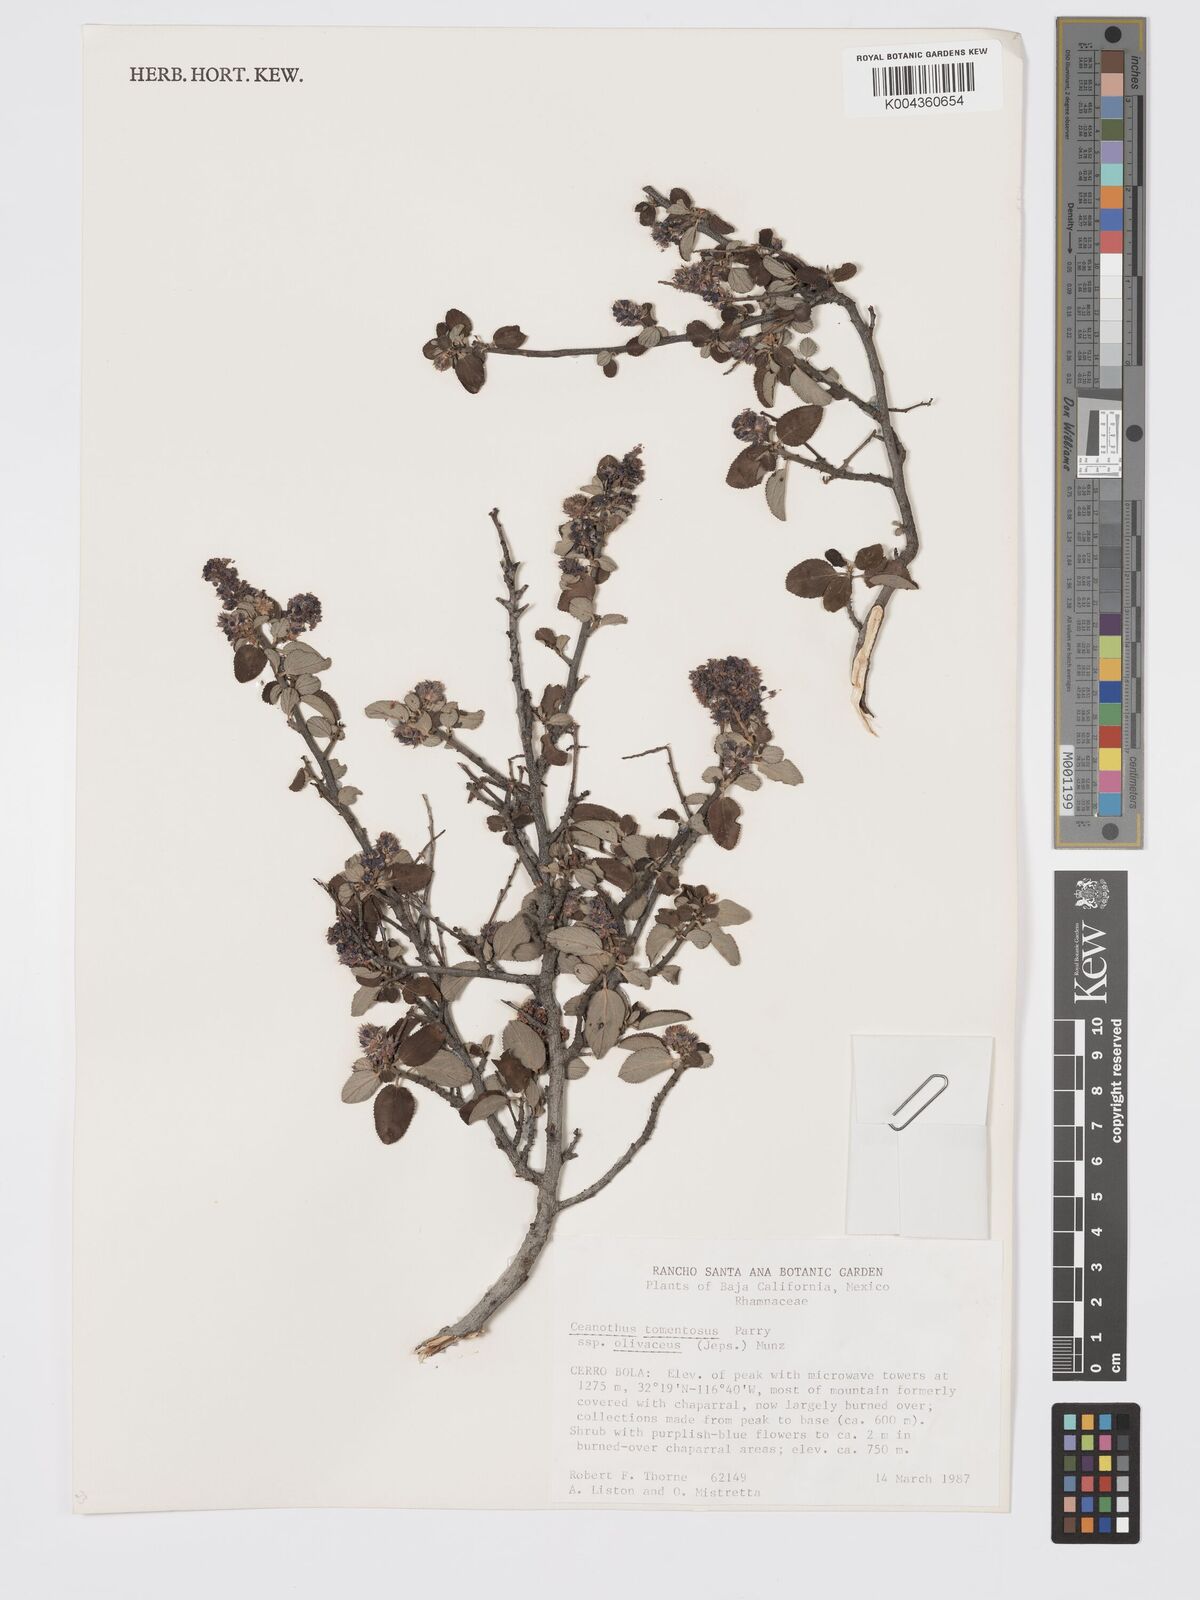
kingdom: Plantae
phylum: Tracheophyta
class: Magnoliopsida
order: Rosales
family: Rhamnaceae
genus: Ceanothus
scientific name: Ceanothus tomentosus
